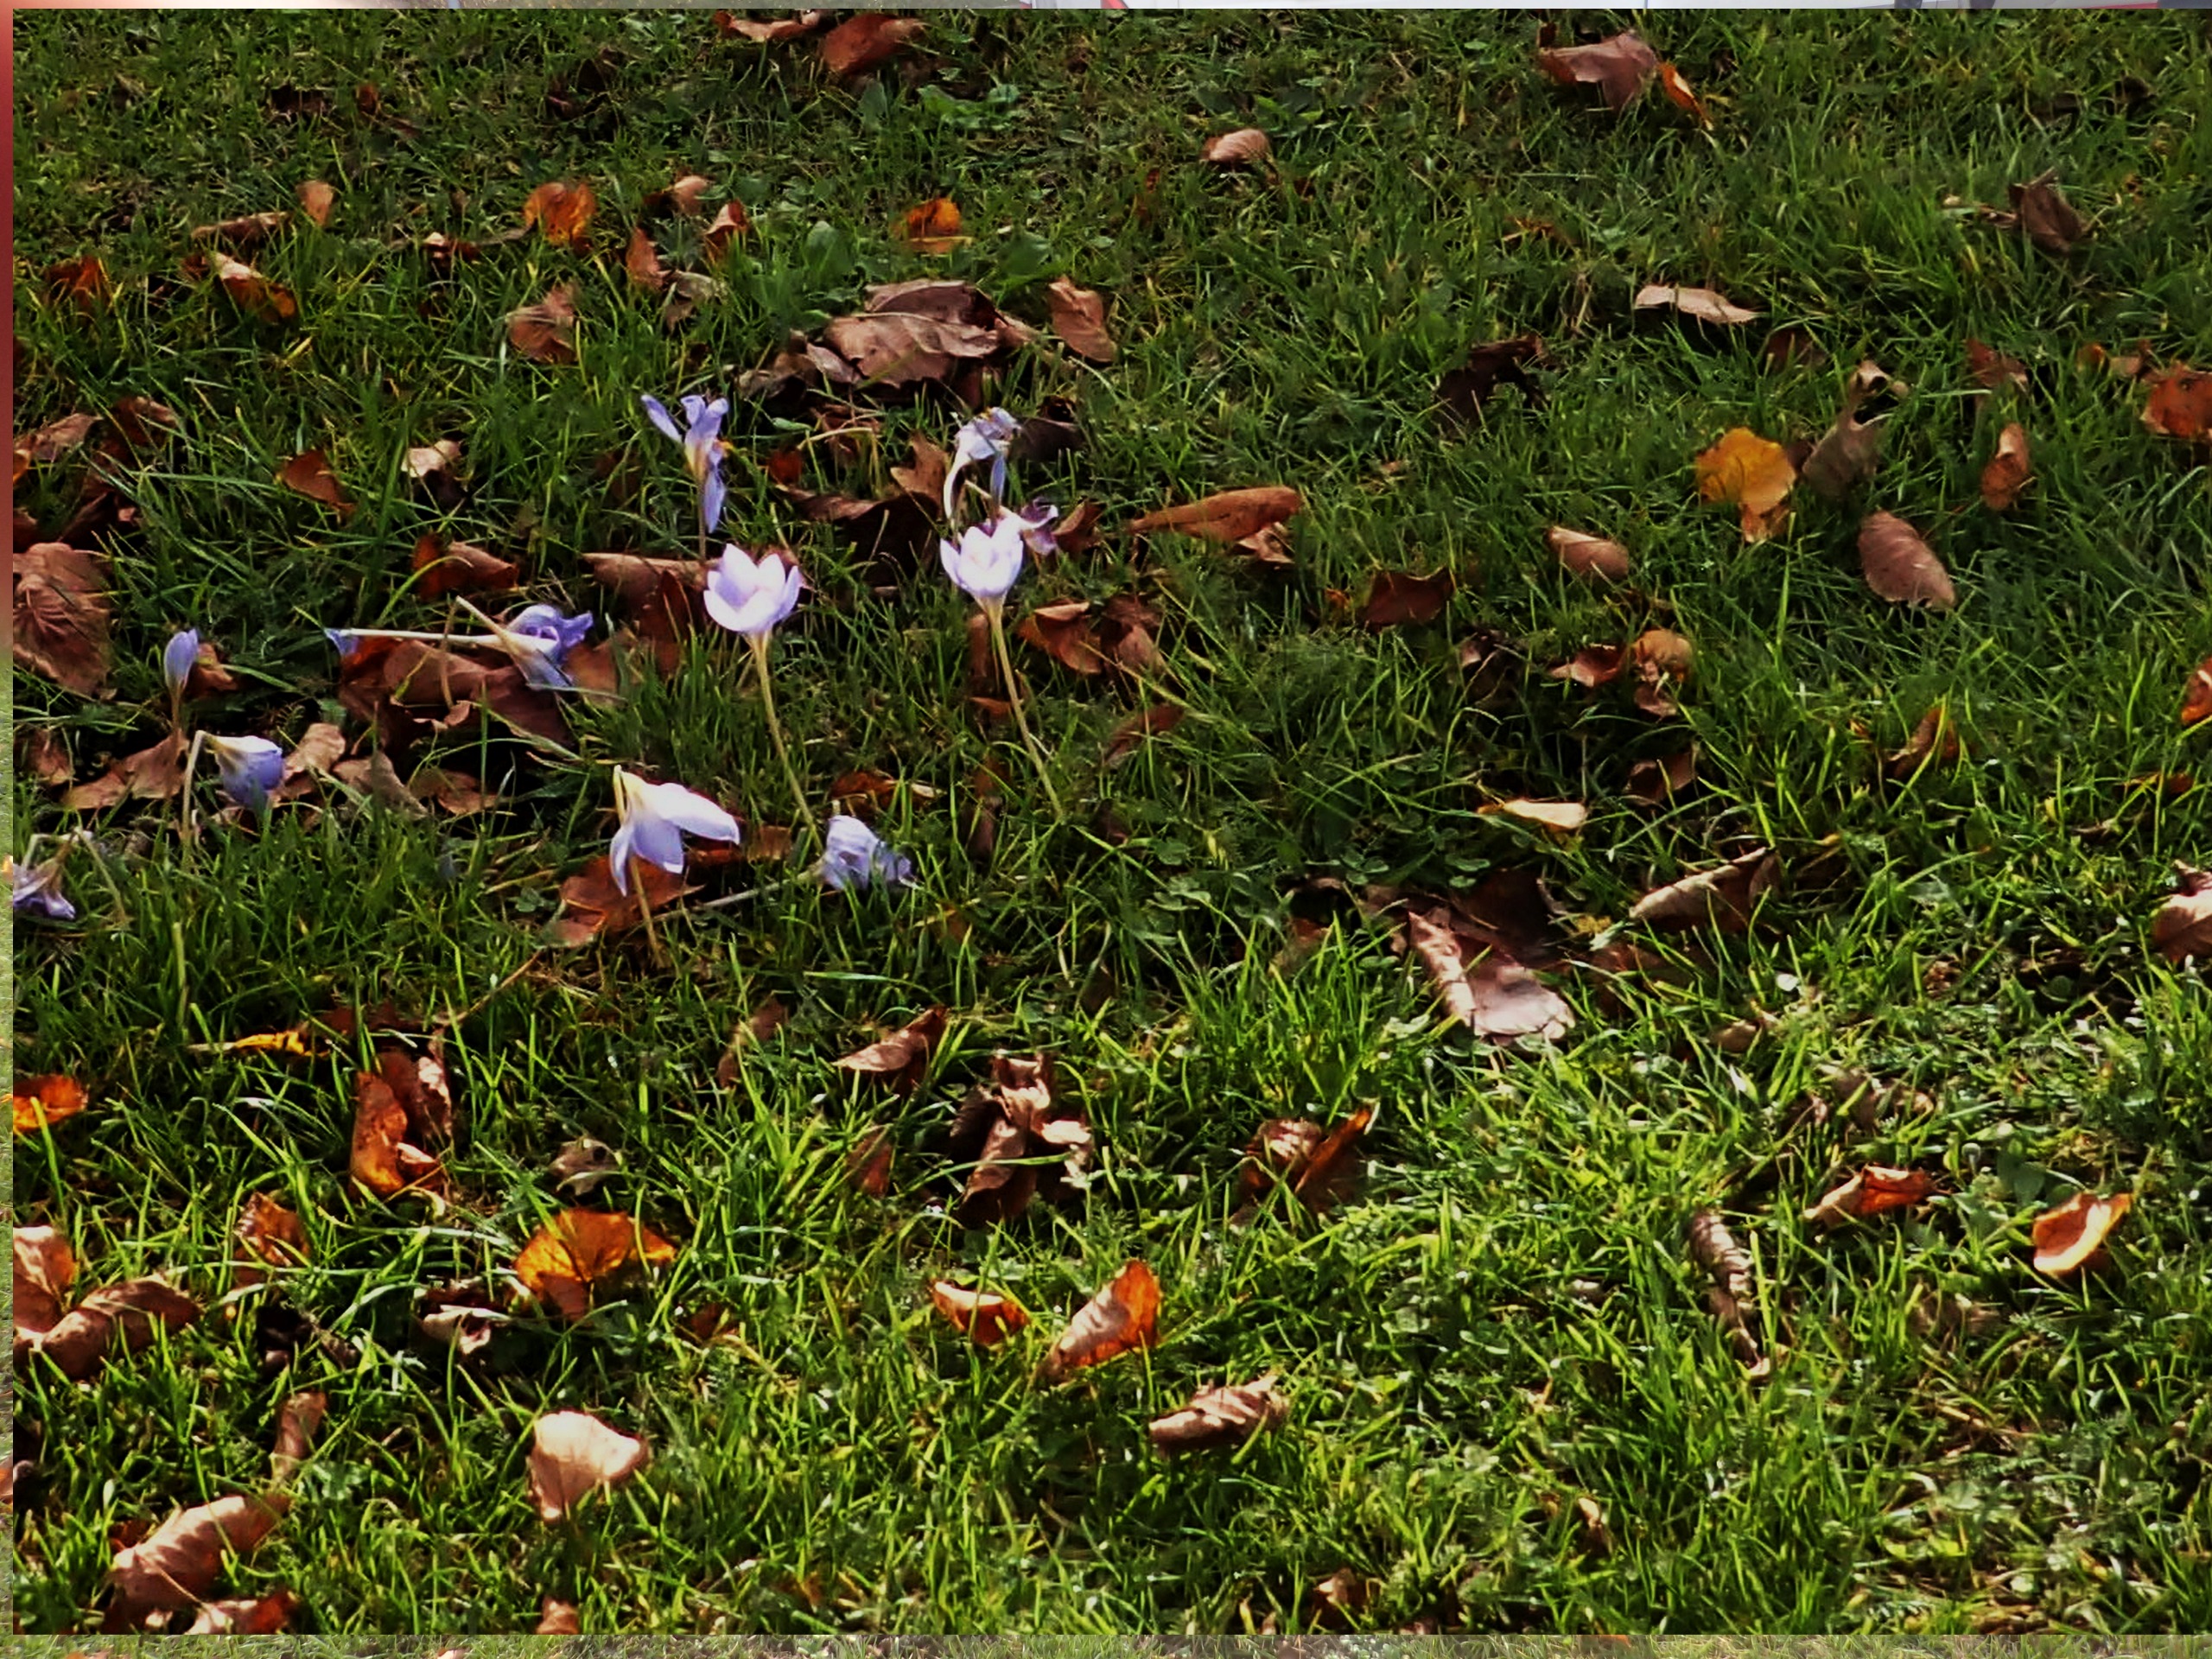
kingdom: Plantae
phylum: Tracheophyta
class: Liliopsida
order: Asparagales
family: Iridaceae
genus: Crocus
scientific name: Crocus speciosus
